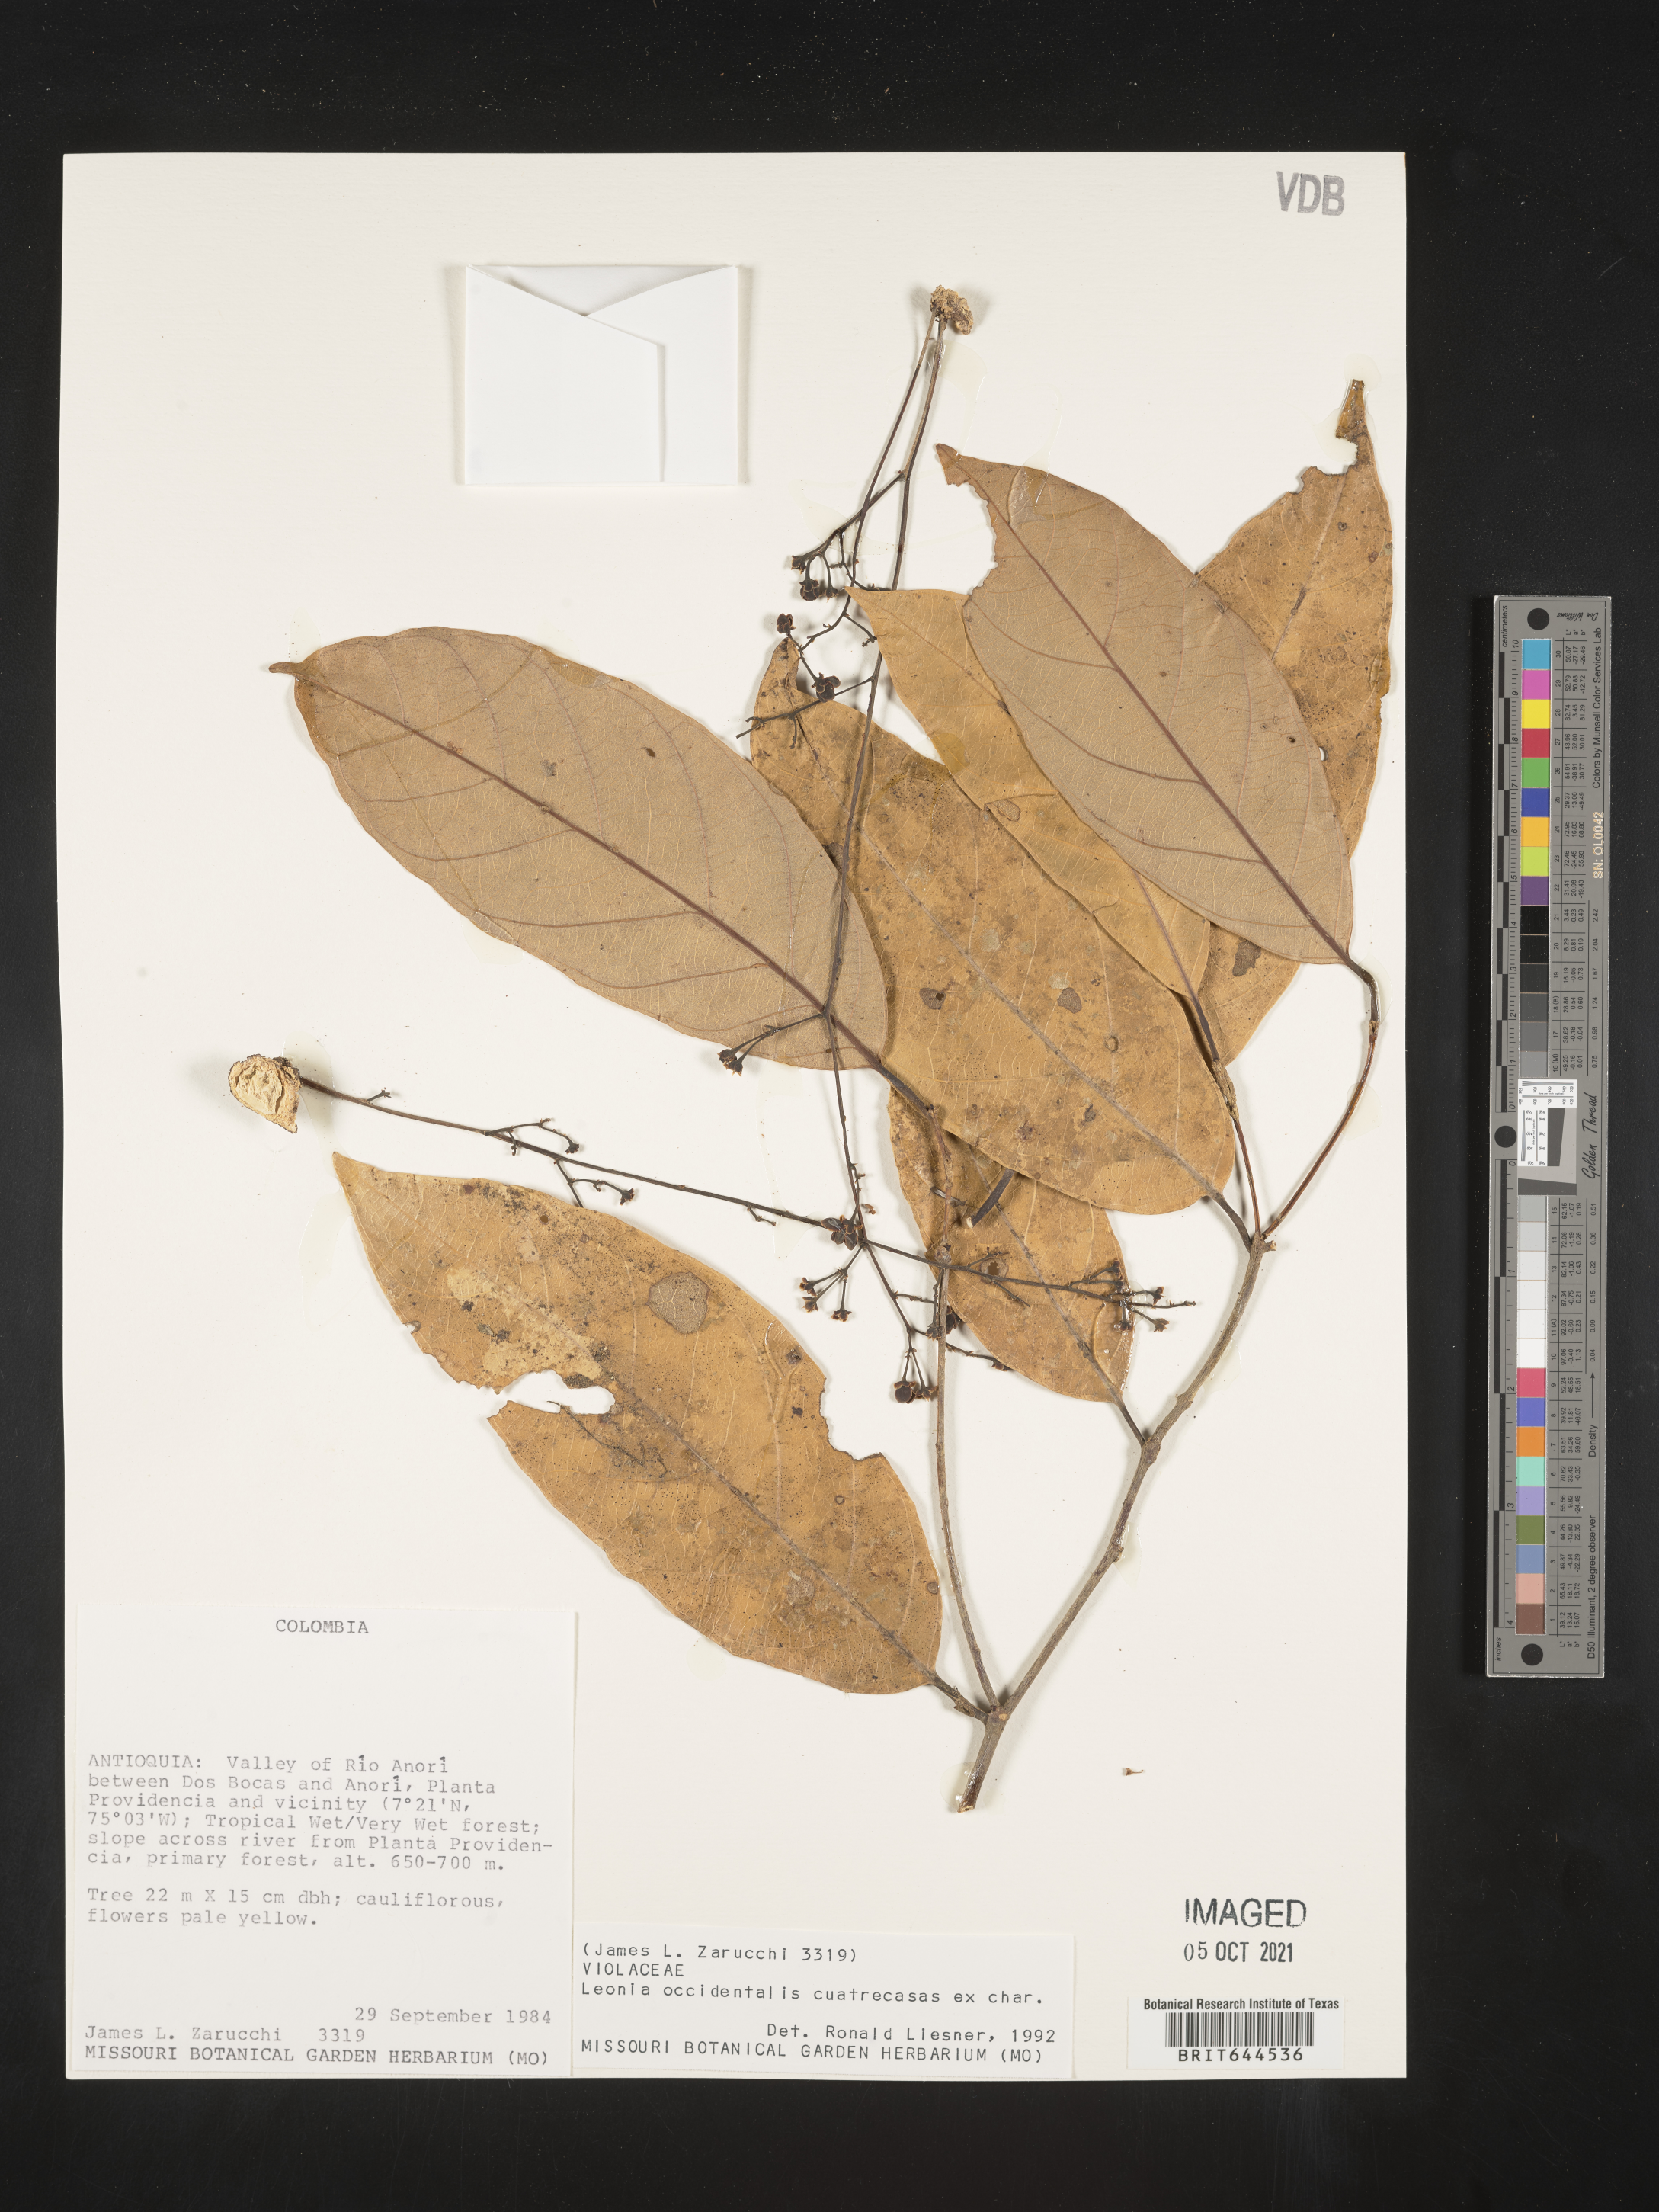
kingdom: Plantae
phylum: Tracheophyta
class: Magnoliopsida
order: Malpighiales
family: Violaceae
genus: Leonia
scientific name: Leonia
